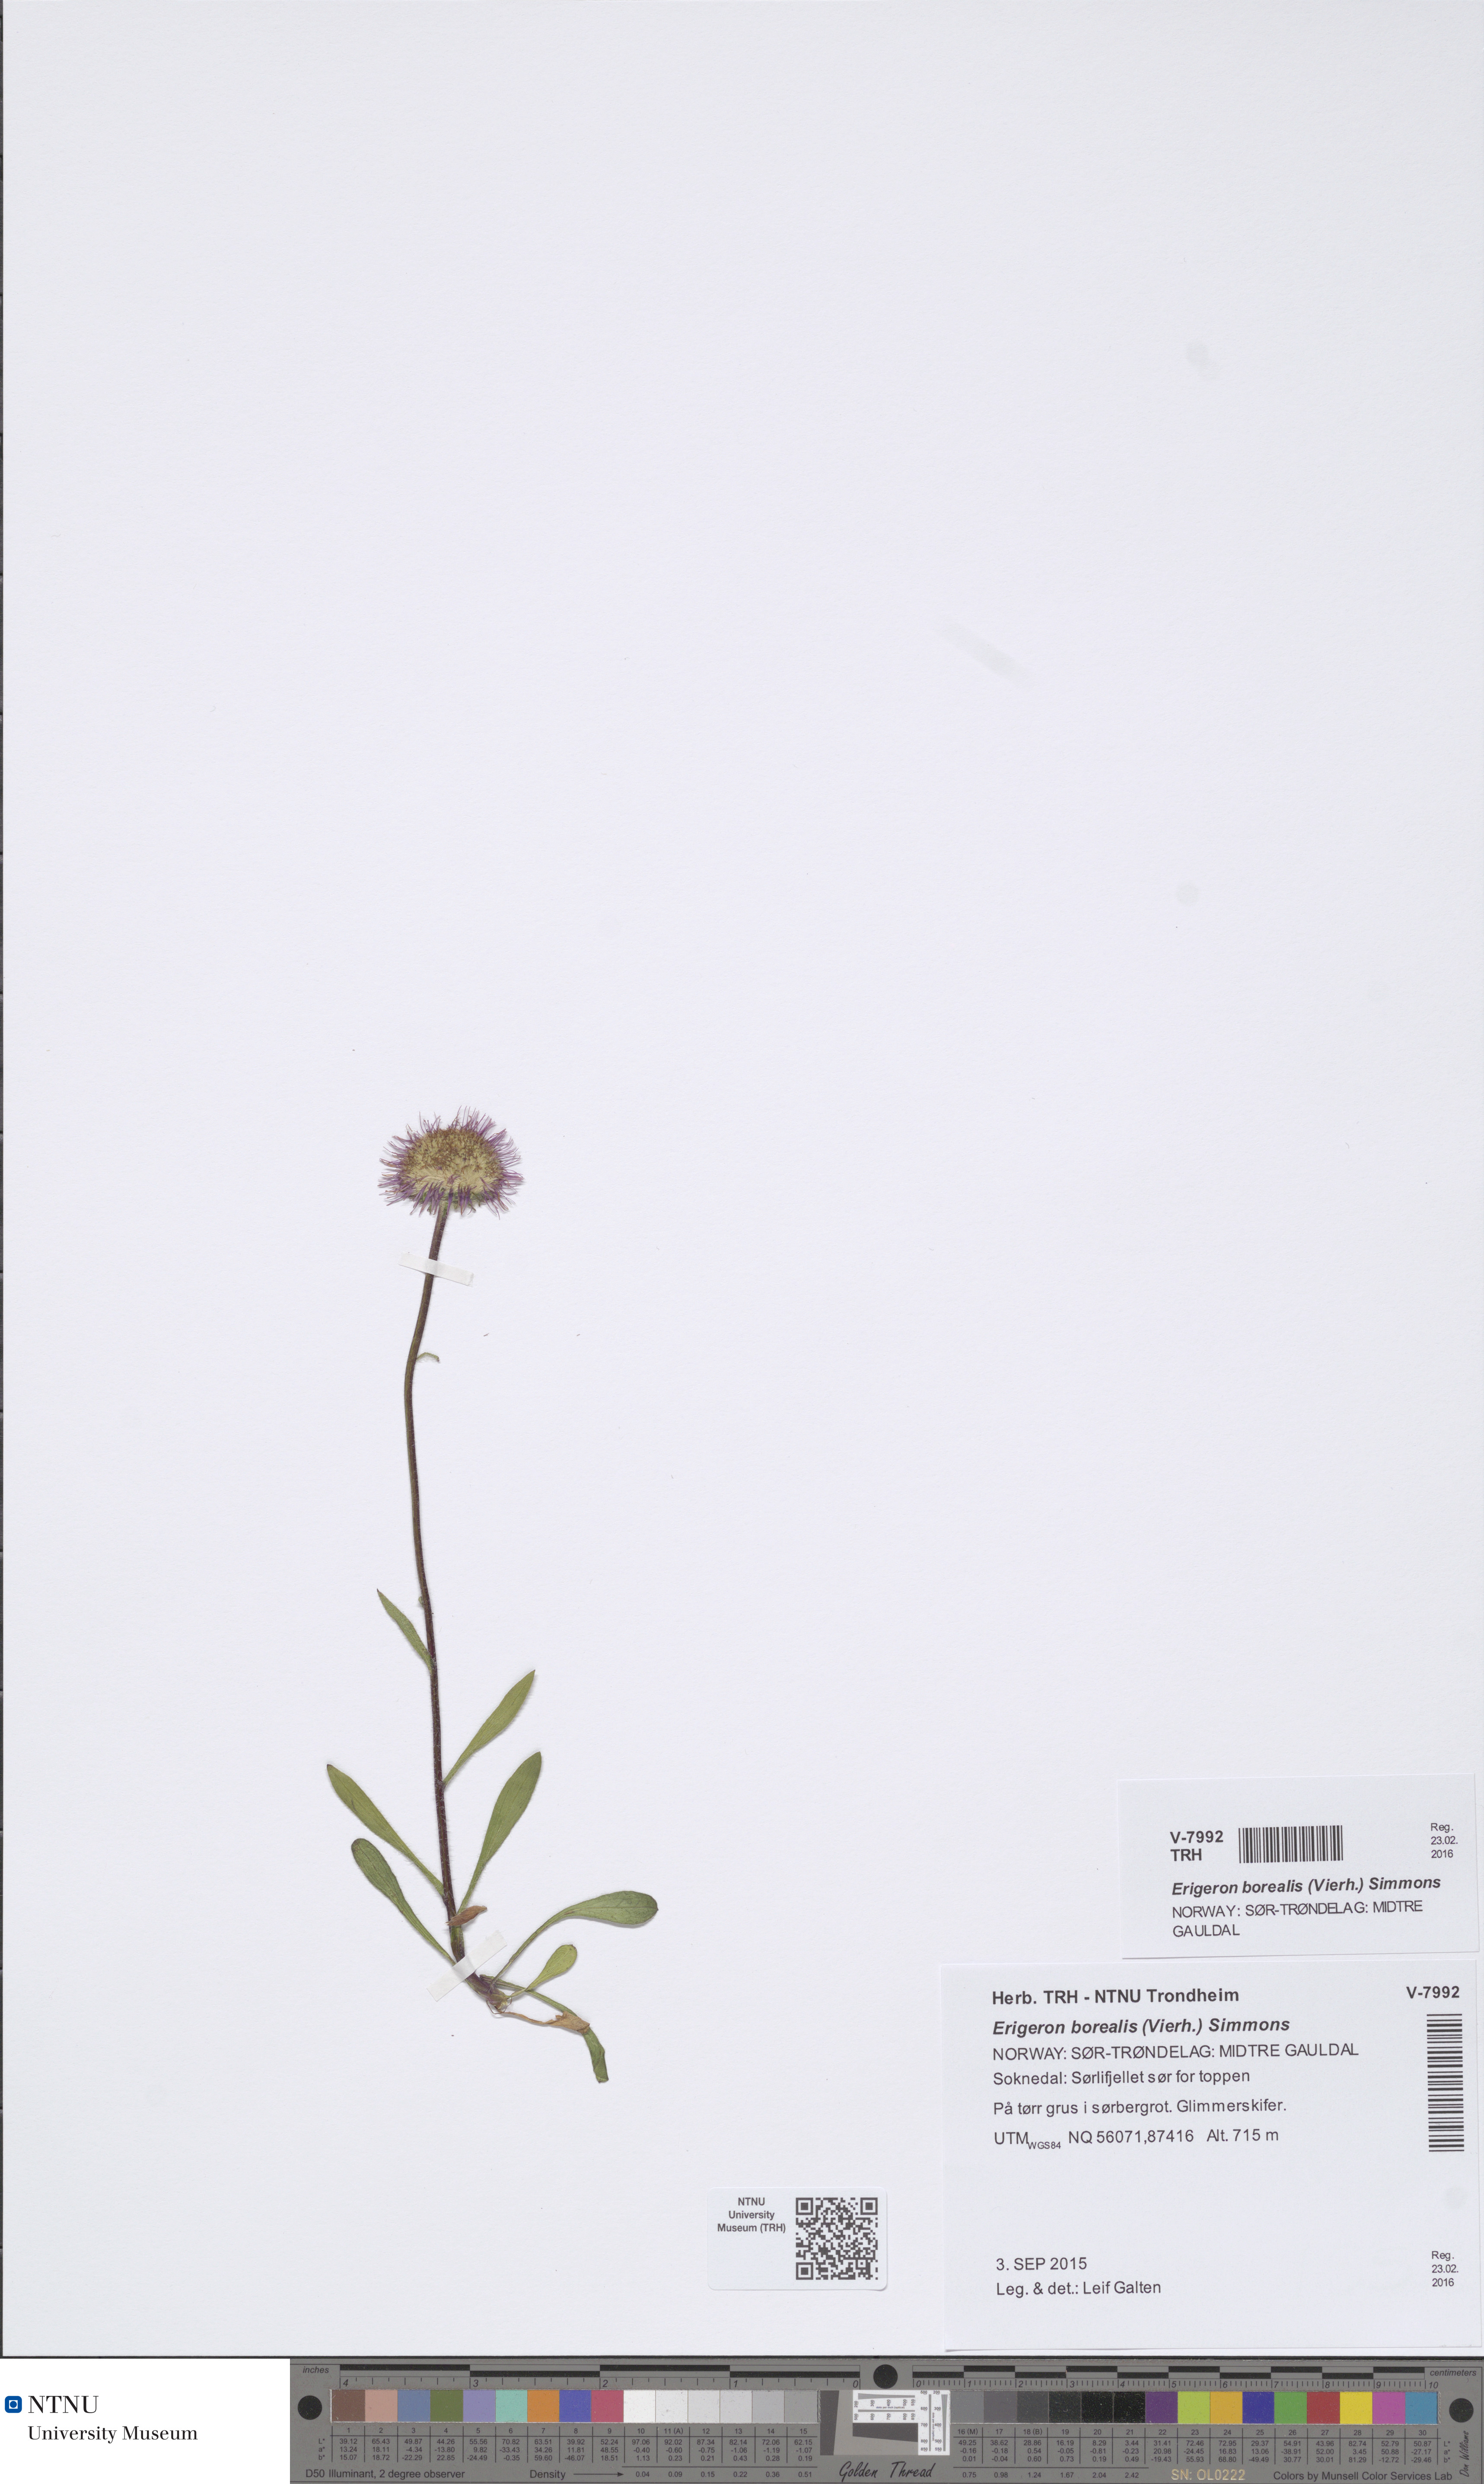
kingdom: Plantae
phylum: Tracheophyta
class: Magnoliopsida
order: Asterales
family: Asteraceae
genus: Erigeron
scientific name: Erigeron borealis
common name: Alpine fleabane
